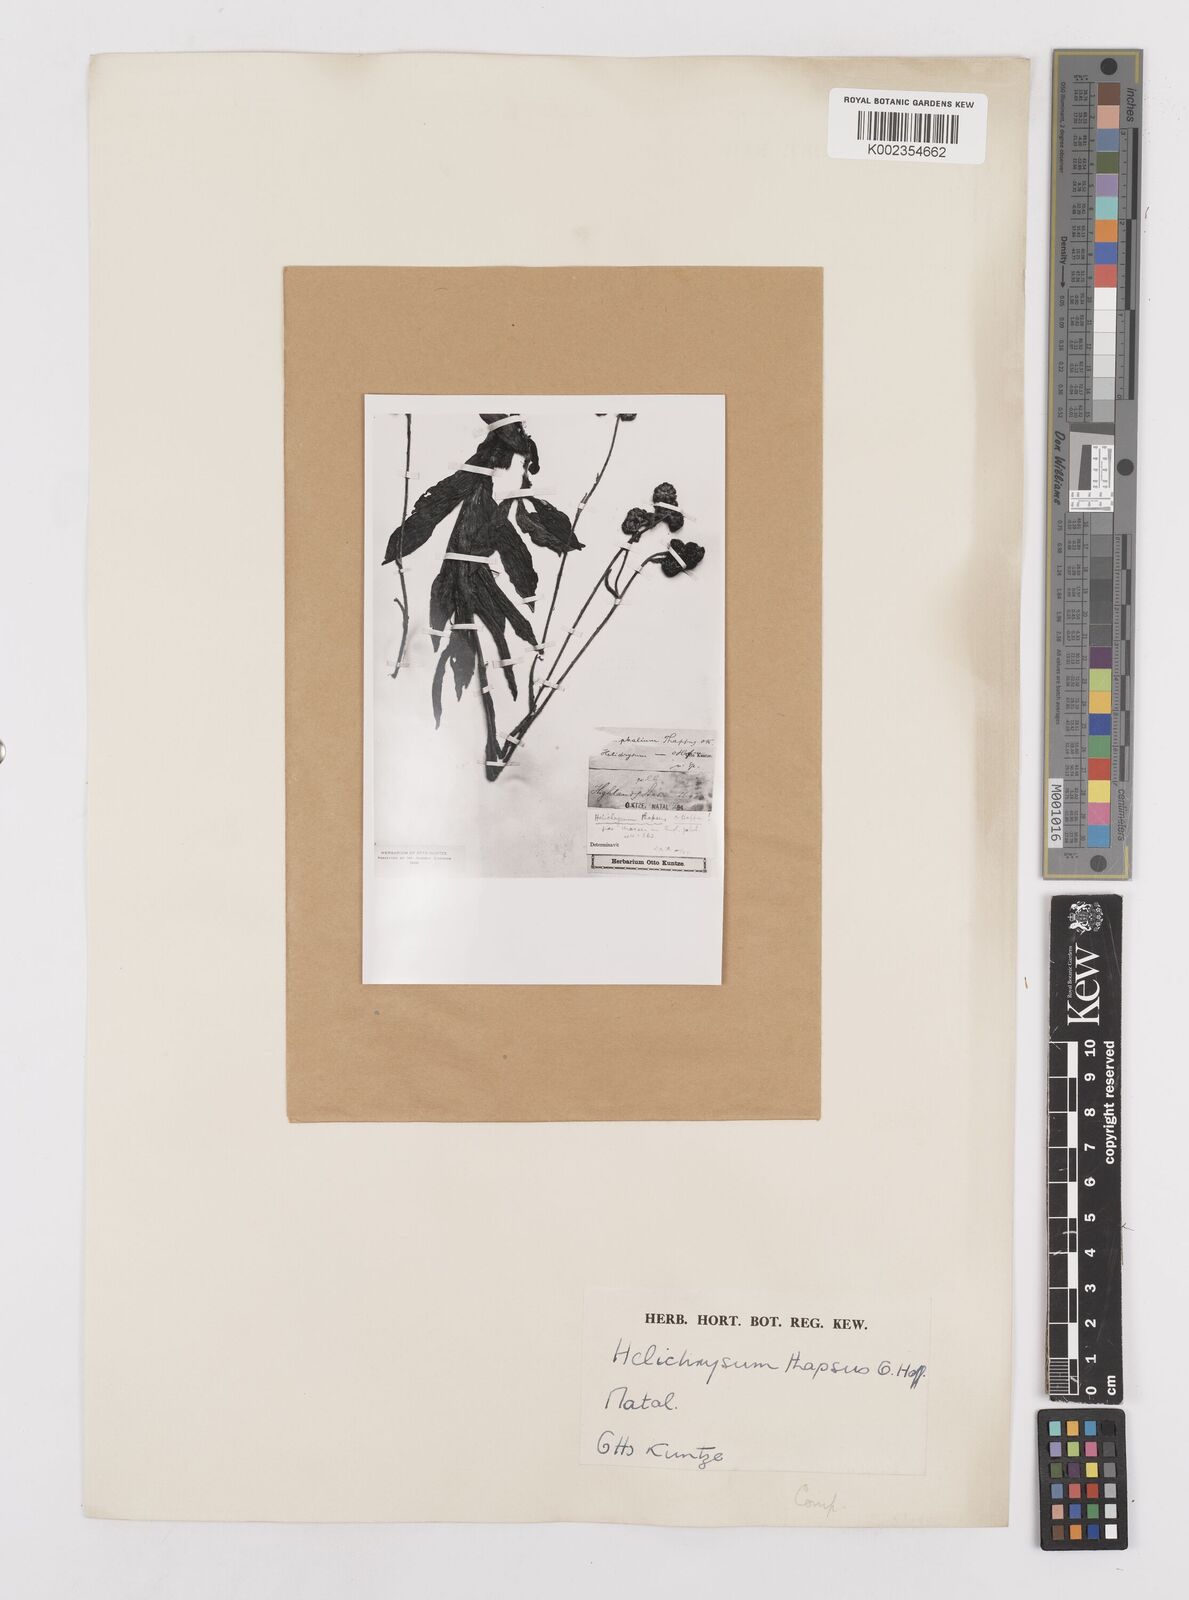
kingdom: Plantae
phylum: Tracheophyta
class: Magnoliopsida
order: Asterales
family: Asteraceae
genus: Helichrysum
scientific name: Helichrysum thapsus
